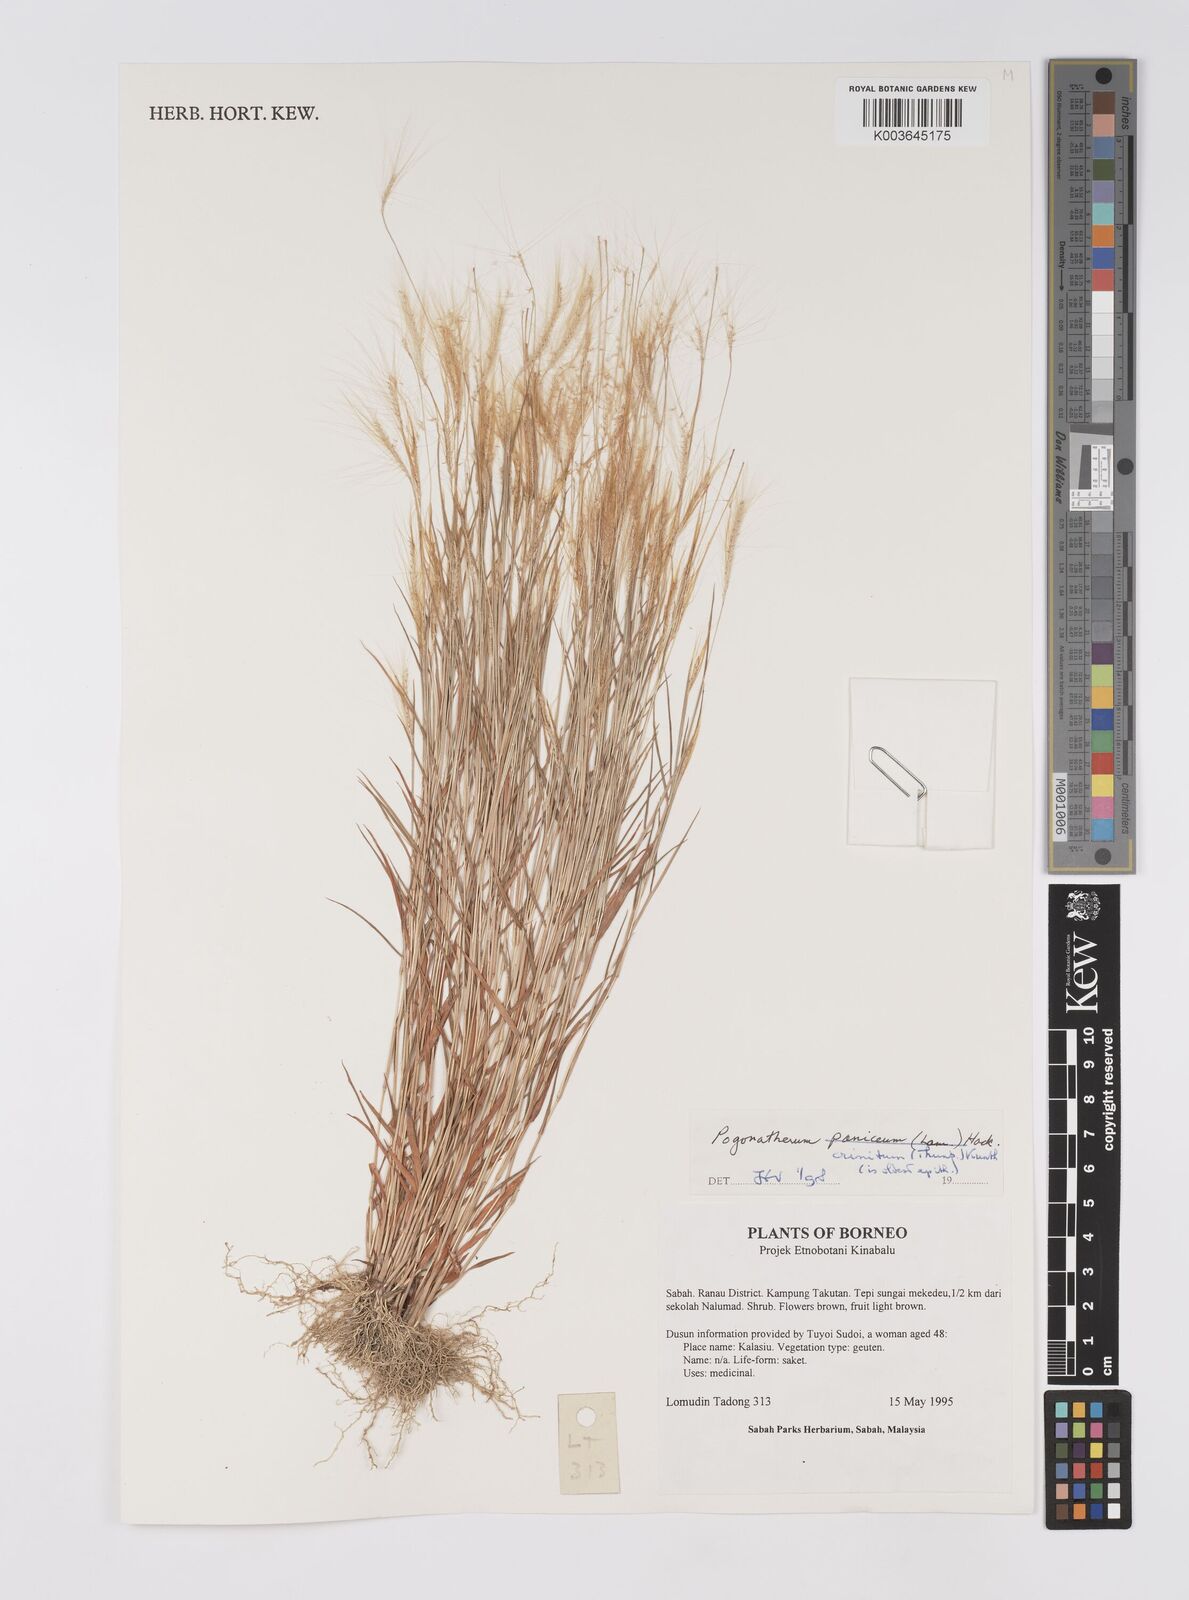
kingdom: Plantae
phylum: Tracheophyta
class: Liliopsida
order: Poales
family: Poaceae
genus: Pogonatherum
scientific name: Pogonatherum crinitum
